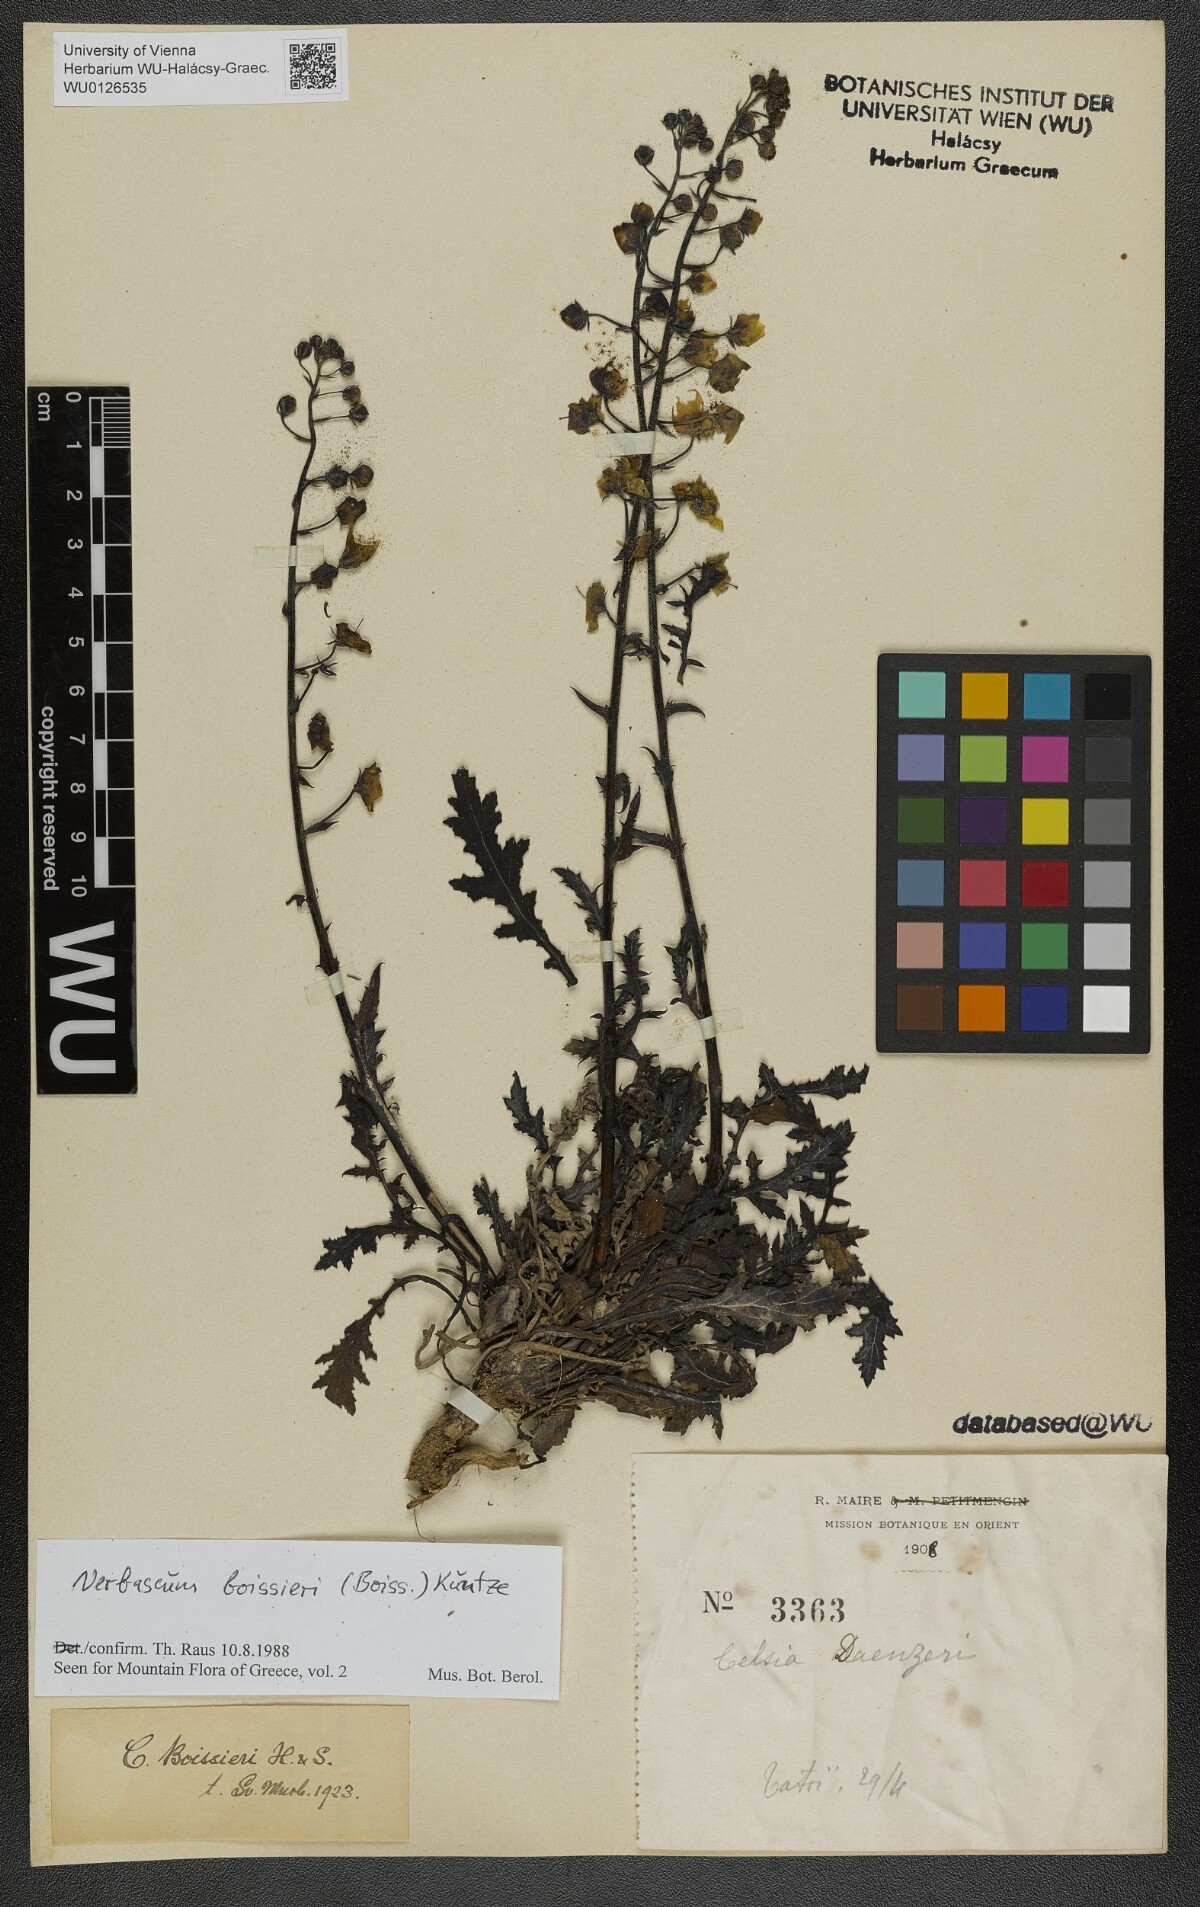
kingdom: Plantae
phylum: Tracheophyta
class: Magnoliopsida
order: Lamiales
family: Scrophulariaceae
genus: Verbascum
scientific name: Verbascum boissieri
